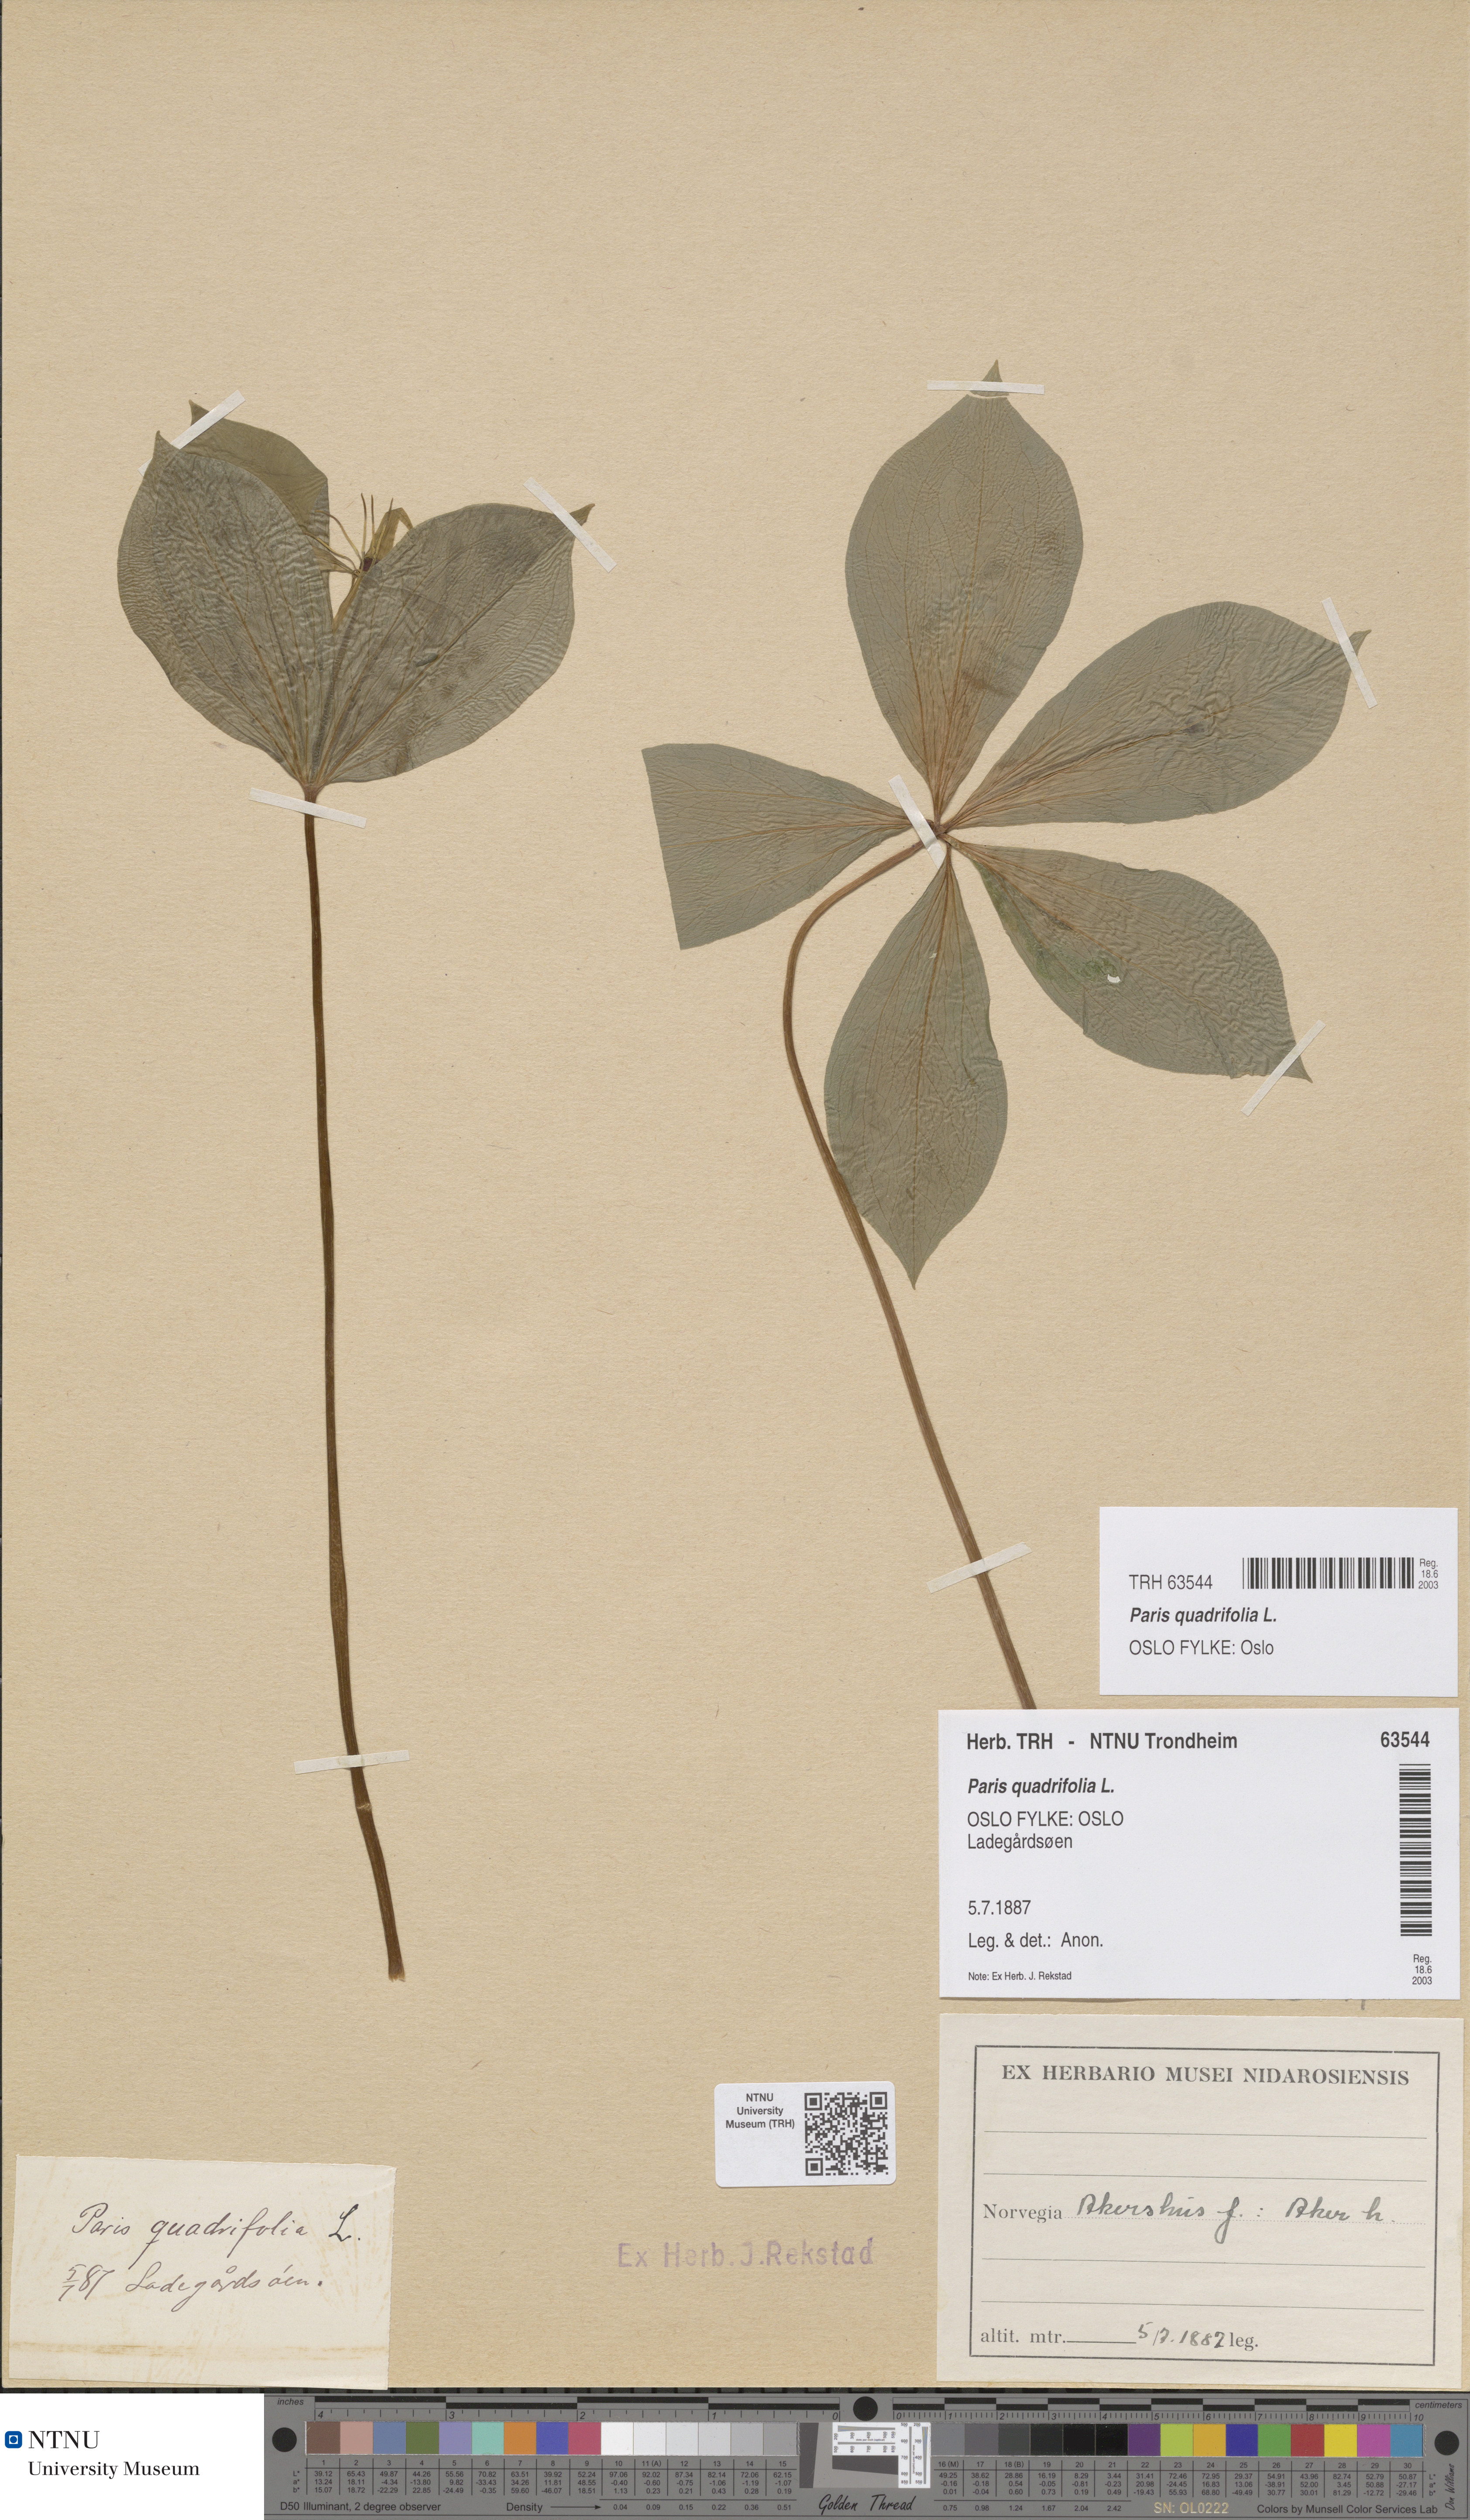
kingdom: Plantae
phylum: Tracheophyta
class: Liliopsida
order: Liliales
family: Melanthiaceae
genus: Paris
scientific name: Paris quadrifolia
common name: Herb-paris
